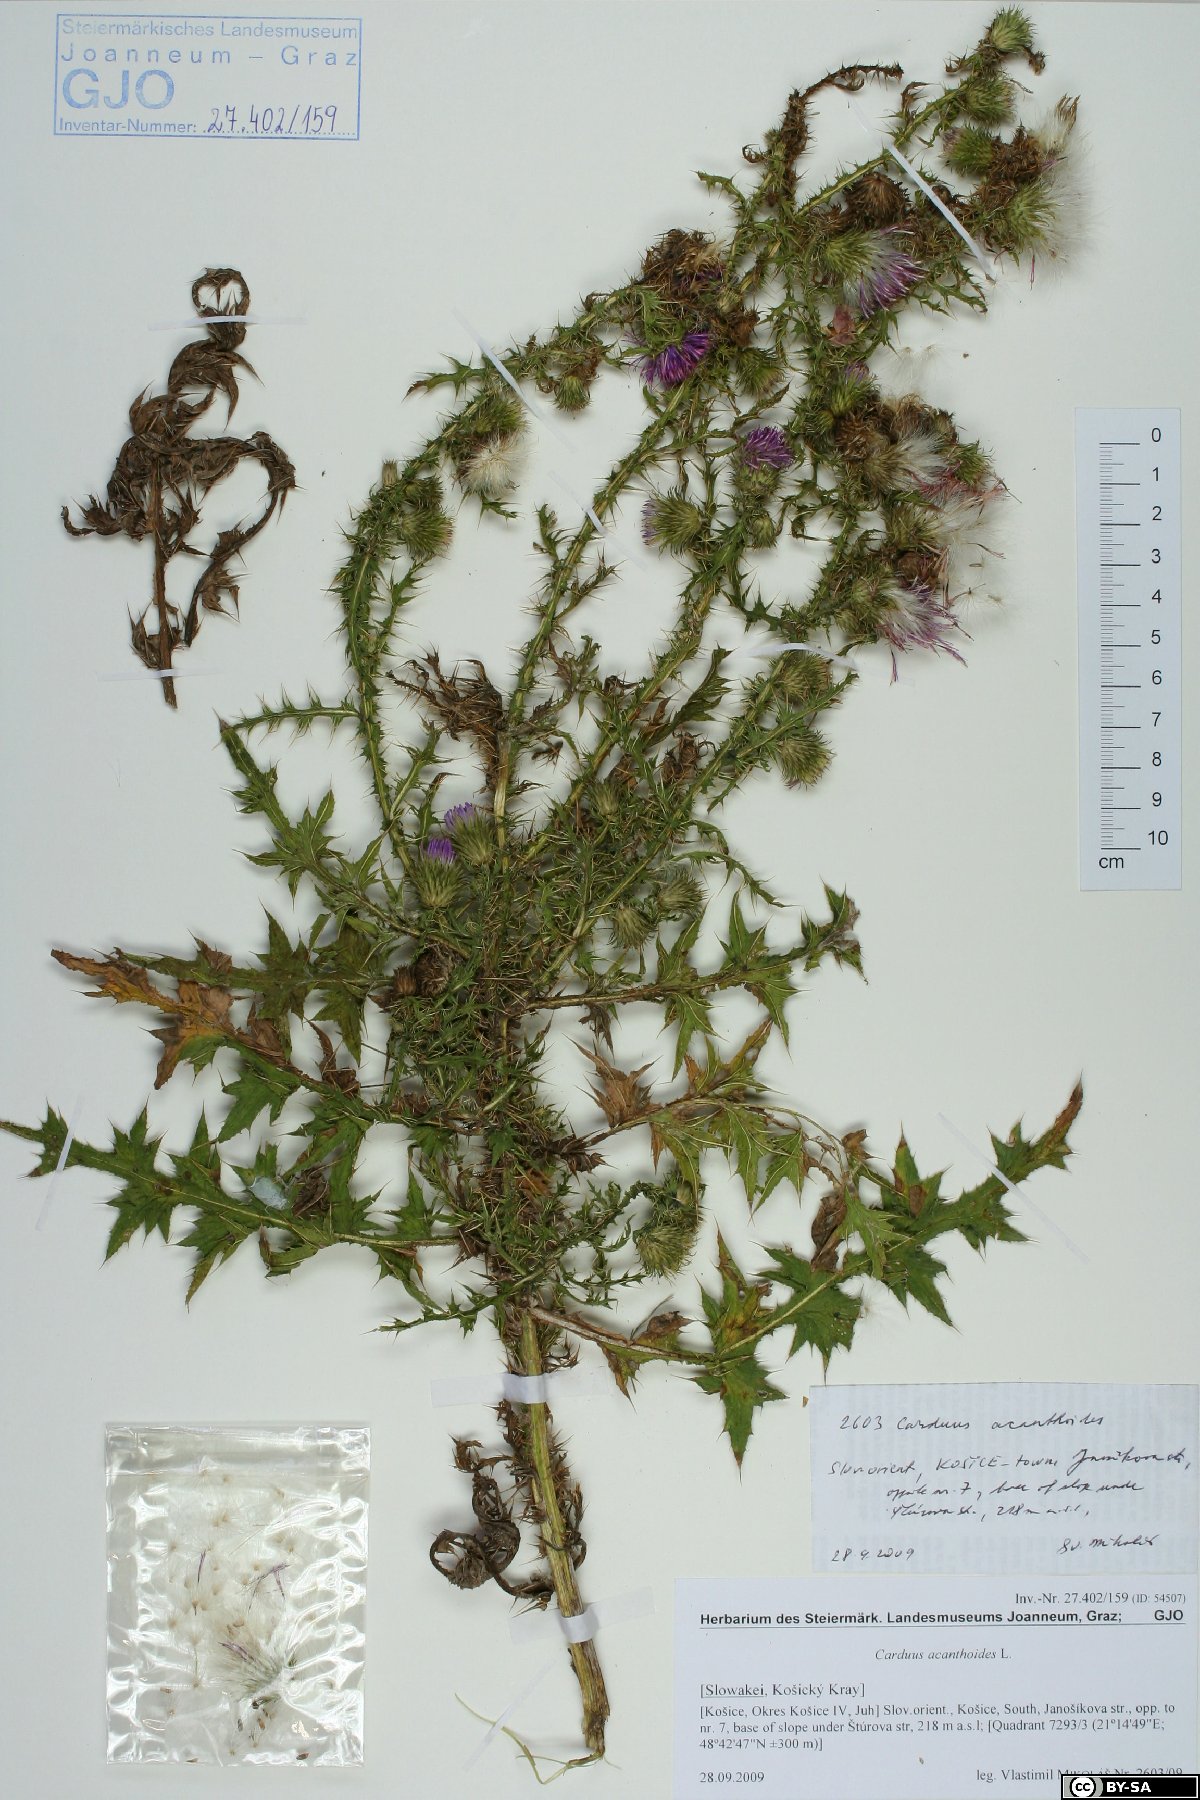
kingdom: Plantae
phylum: Tracheophyta
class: Magnoliopsida
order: Asterales
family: Asteraceae
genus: Carduus
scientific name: Carduus acanthoides
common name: Plumeless thistle
